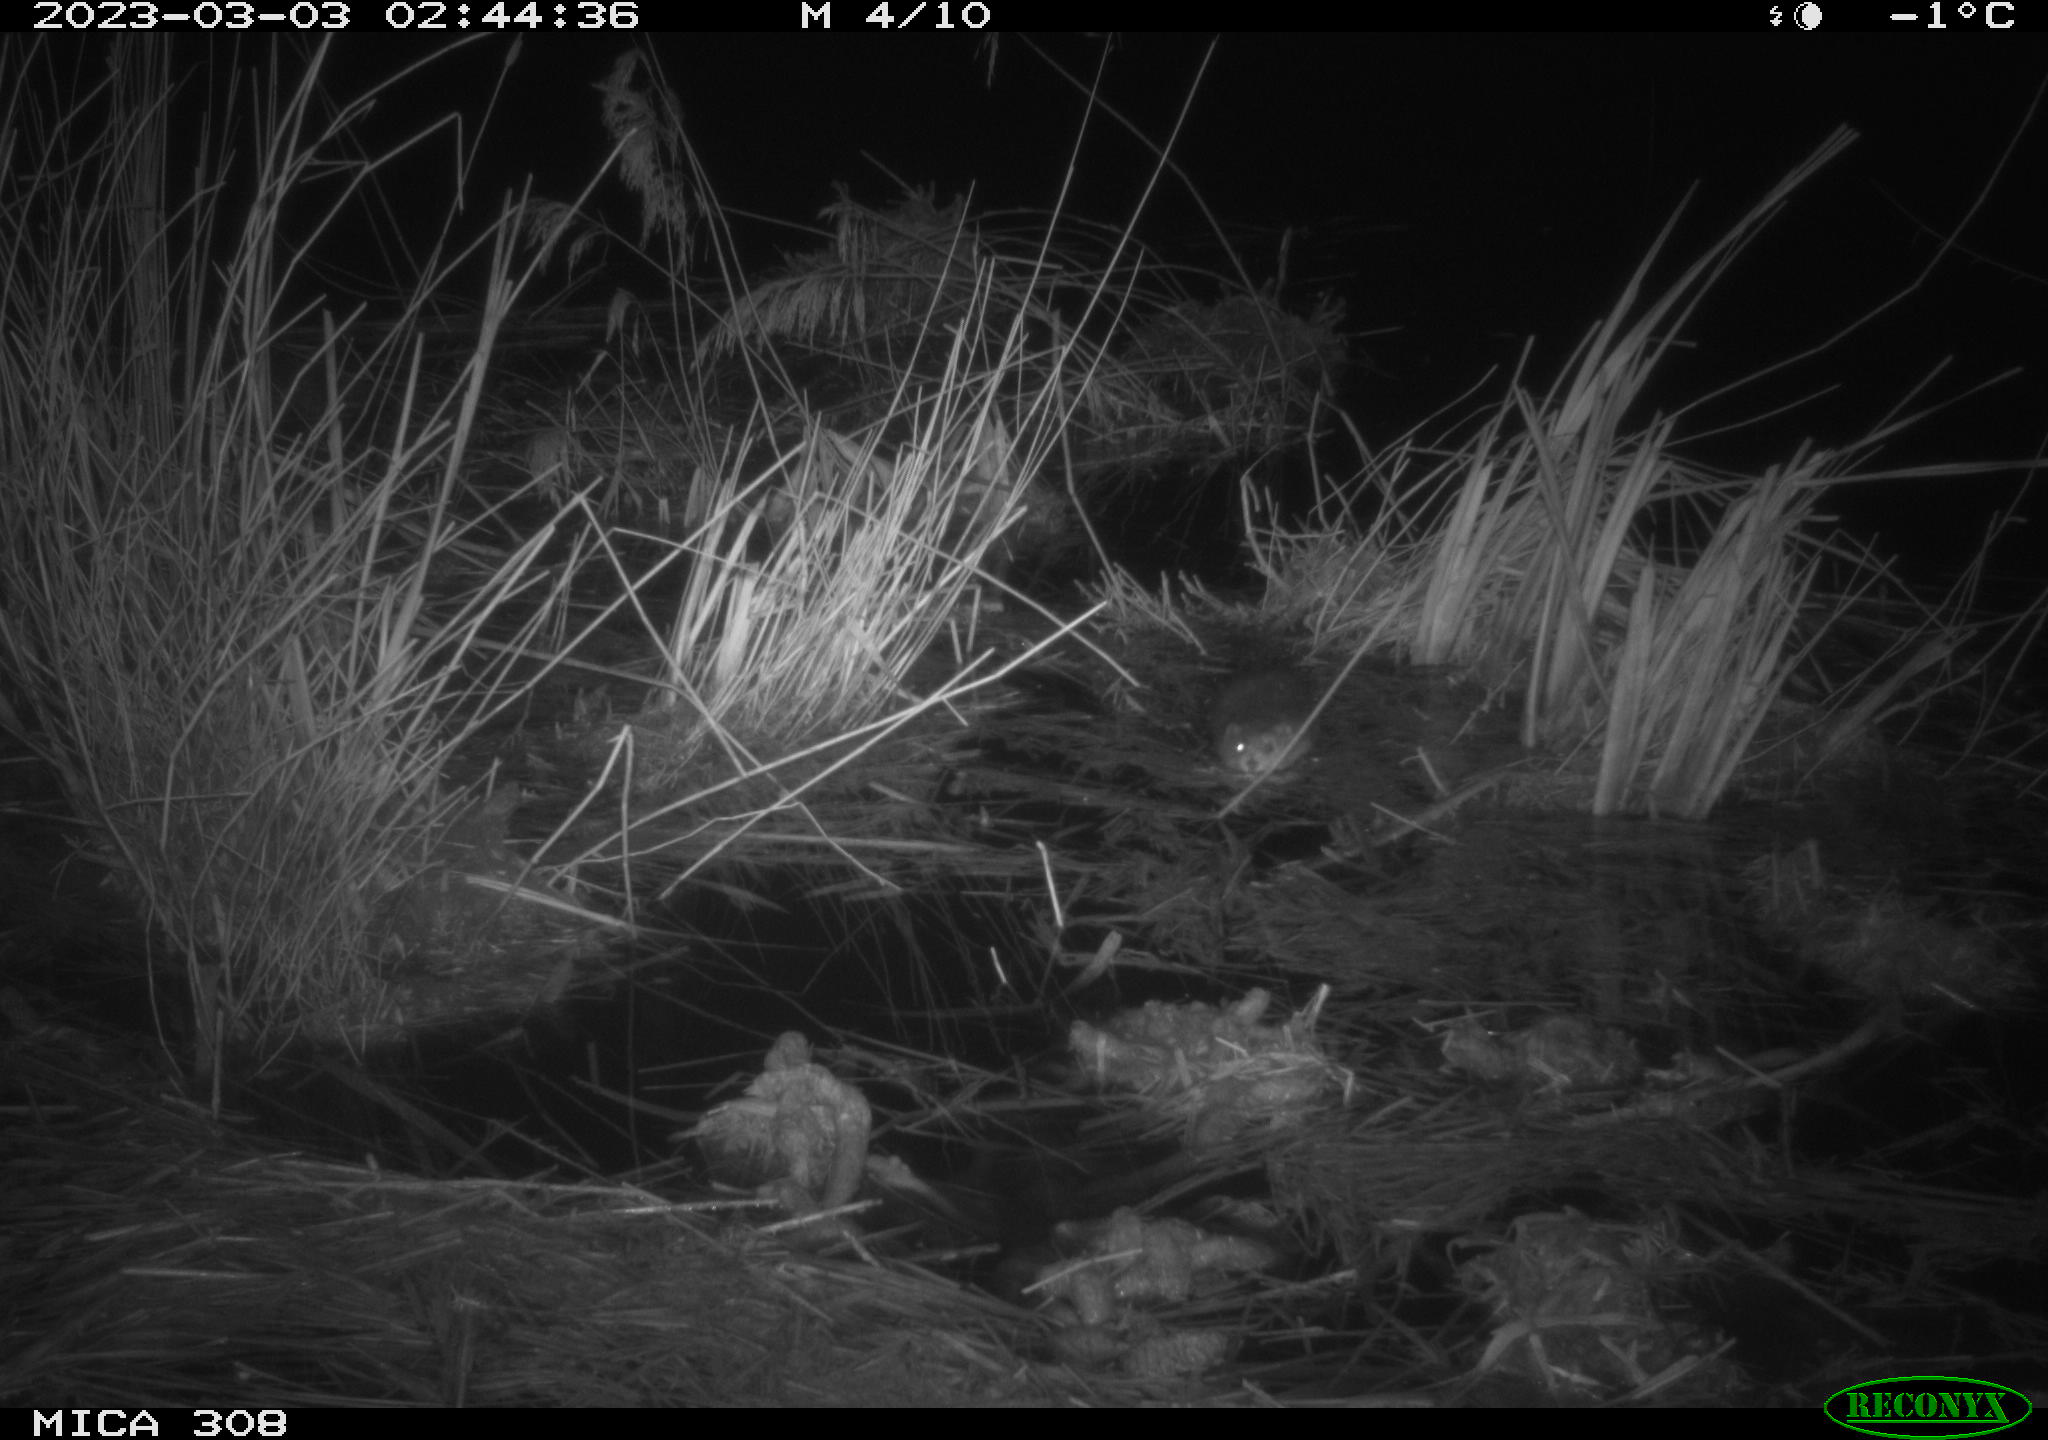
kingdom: Animalia
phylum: Chordata
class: Mammalia
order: Rodentia
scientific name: Rodentia
